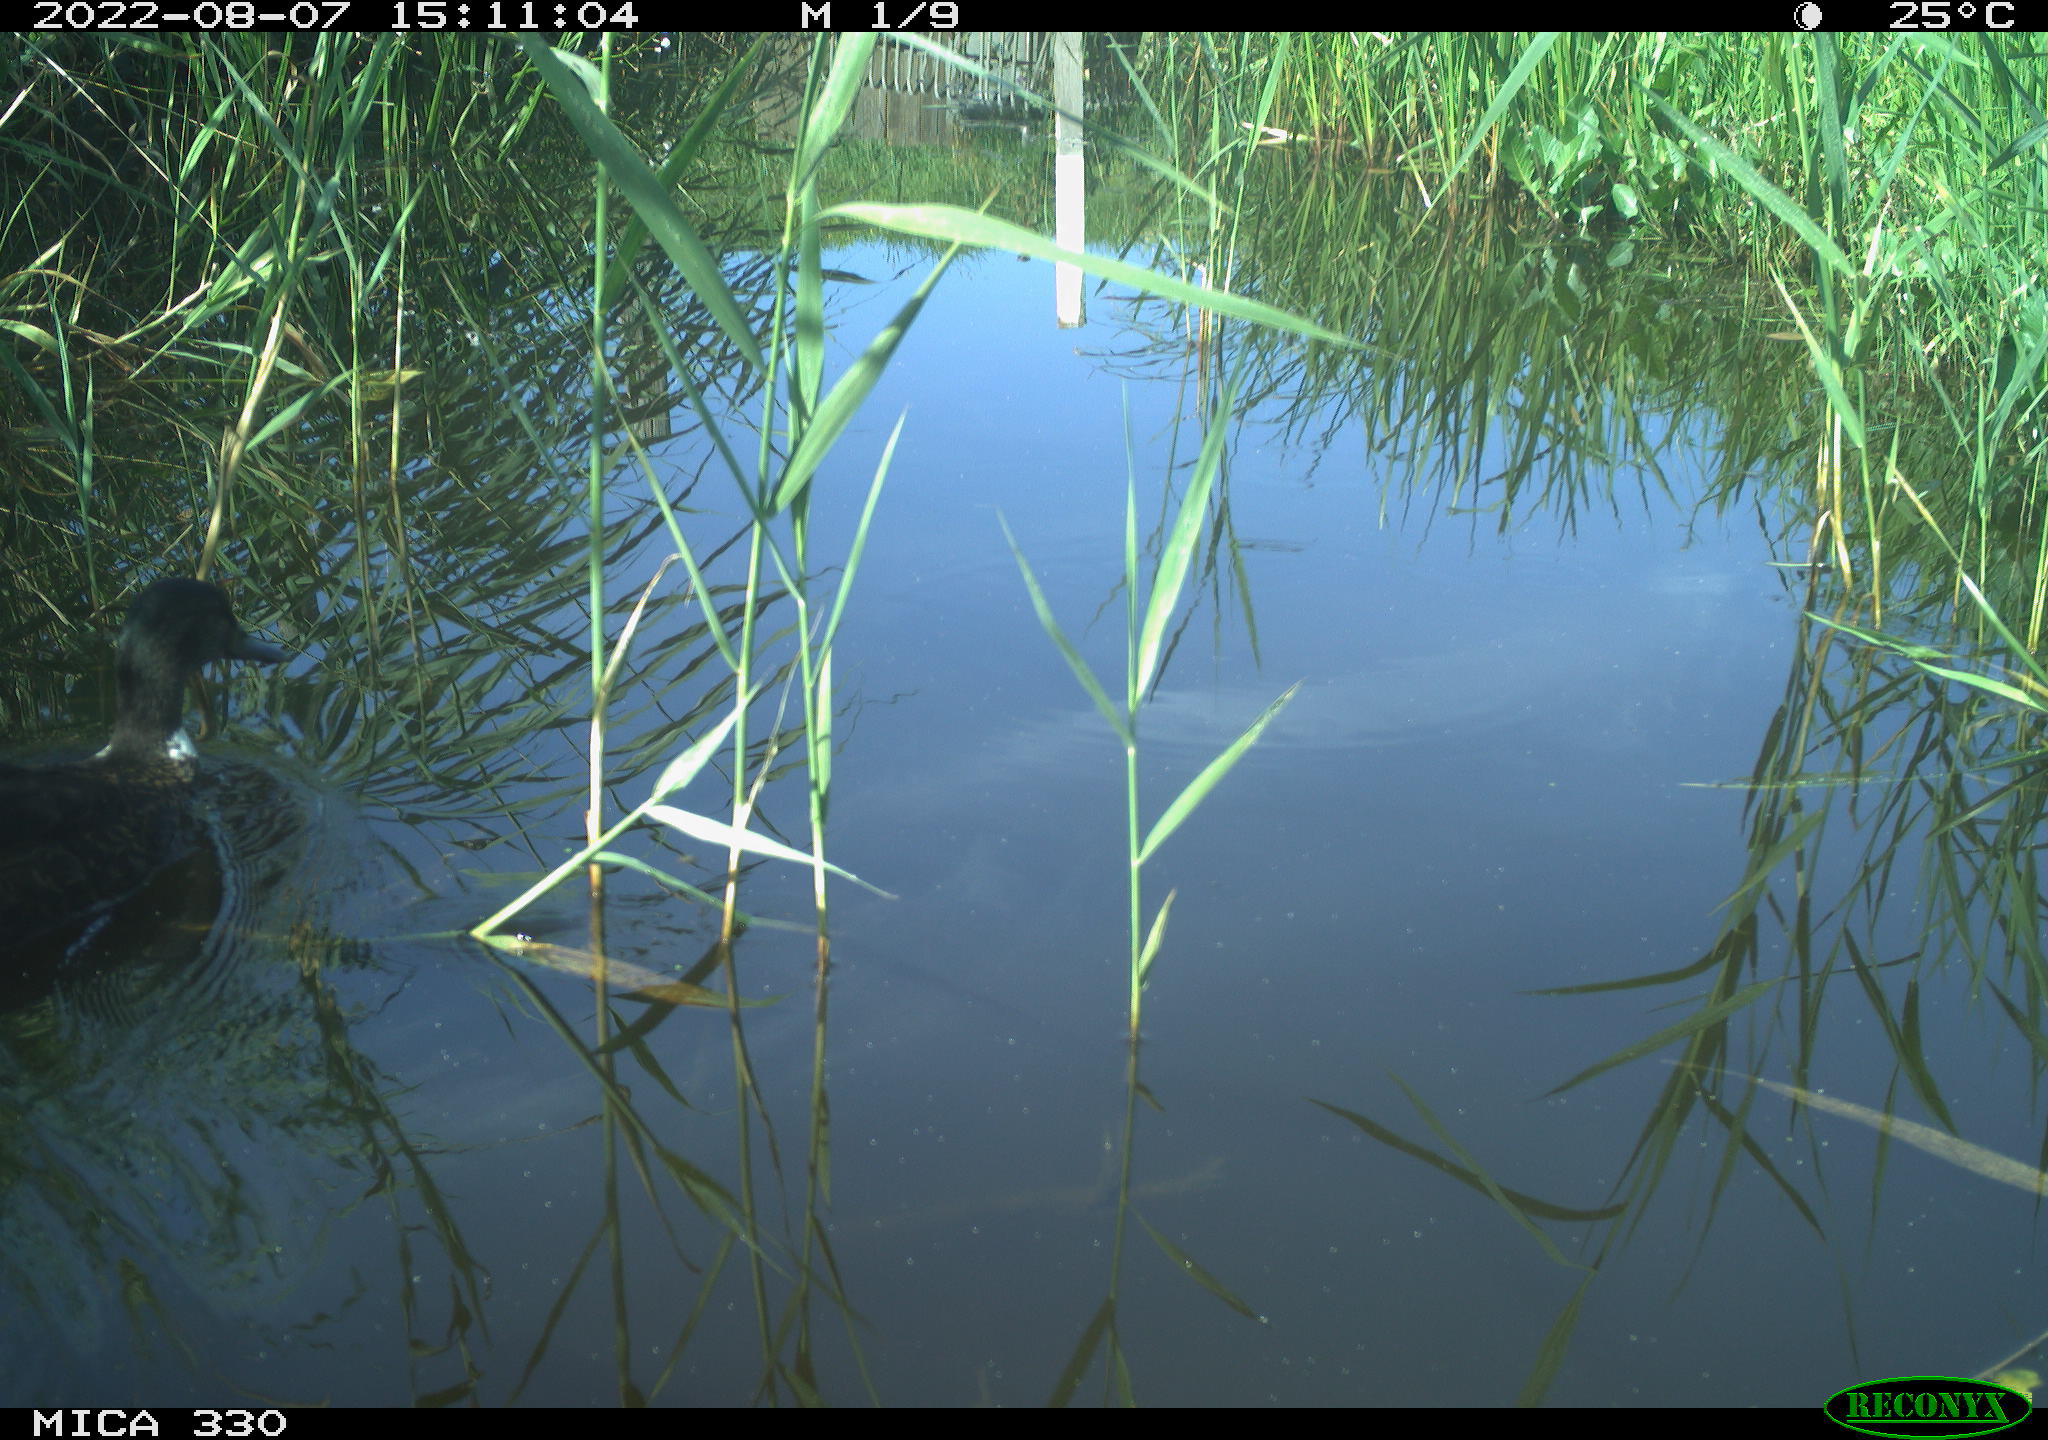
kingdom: Animalia
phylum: Chordata
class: Aves
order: Anseriformes
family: Anatidae
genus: Mareca
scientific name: Mareca strepera
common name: Gadwall
